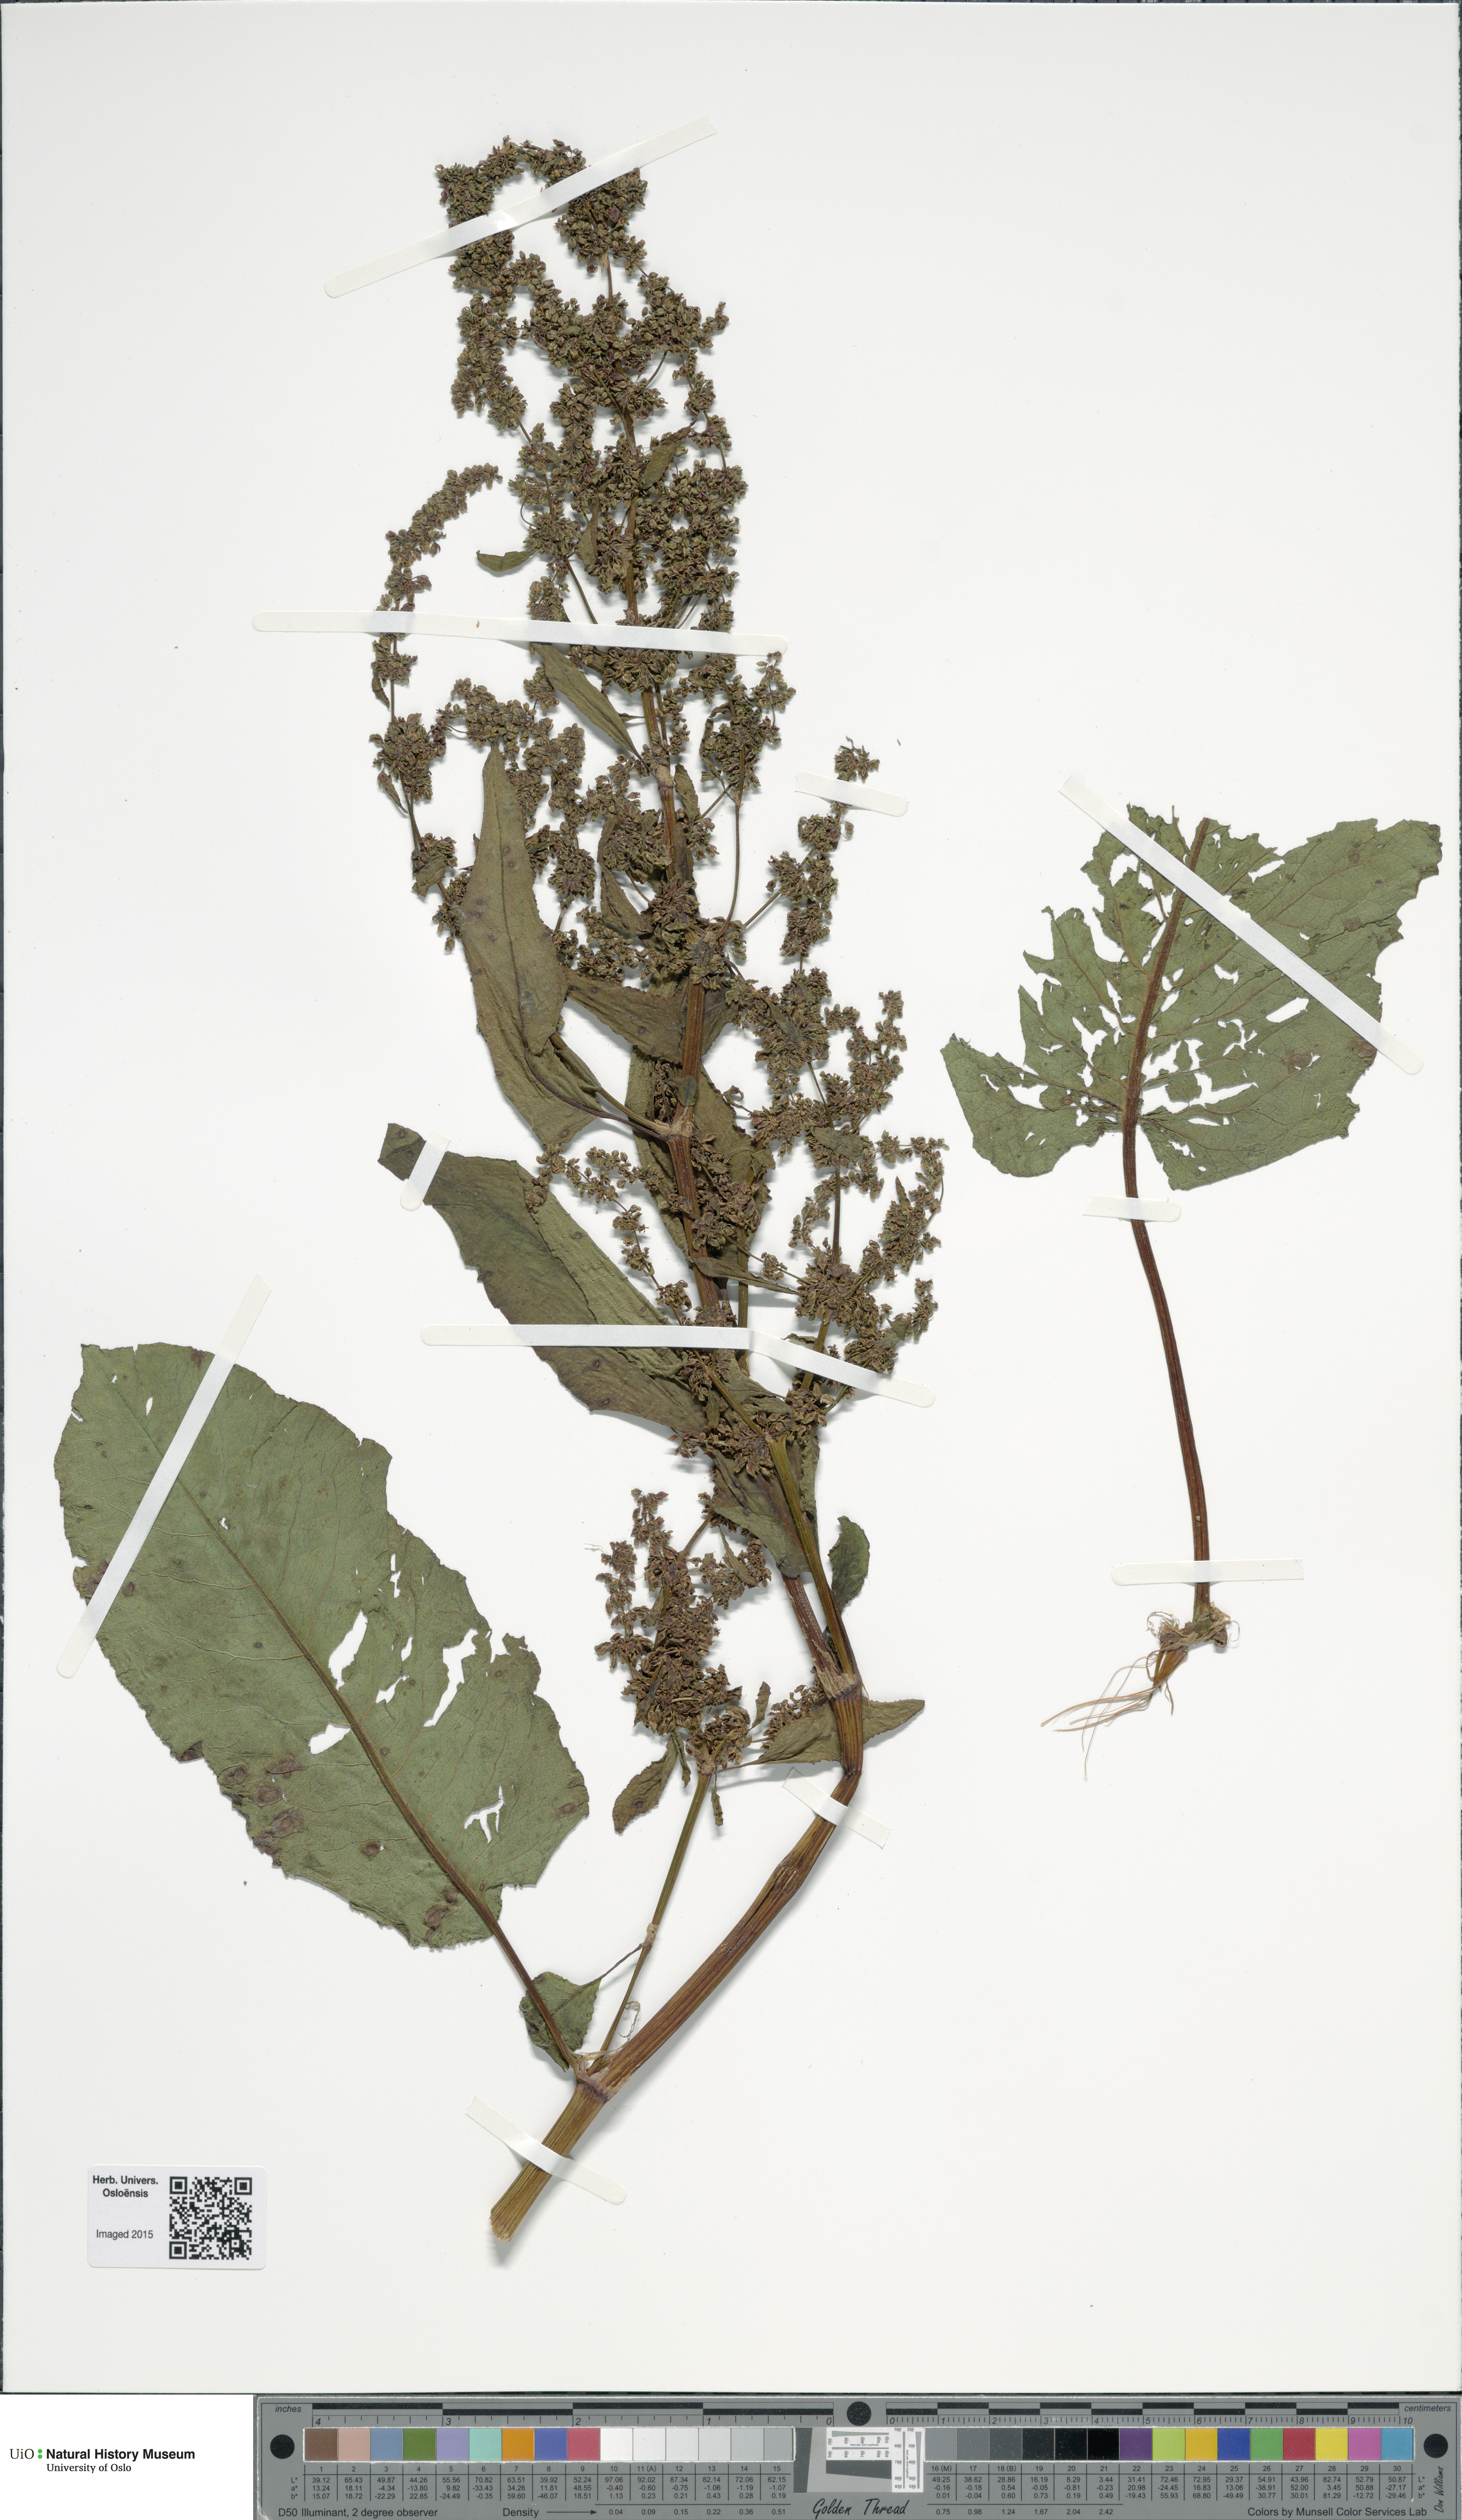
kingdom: Plantae
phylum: Tracheophyta
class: Magnoliopsida
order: Caryophyllales
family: Polygonaceae
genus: Rumex
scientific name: Rumex
